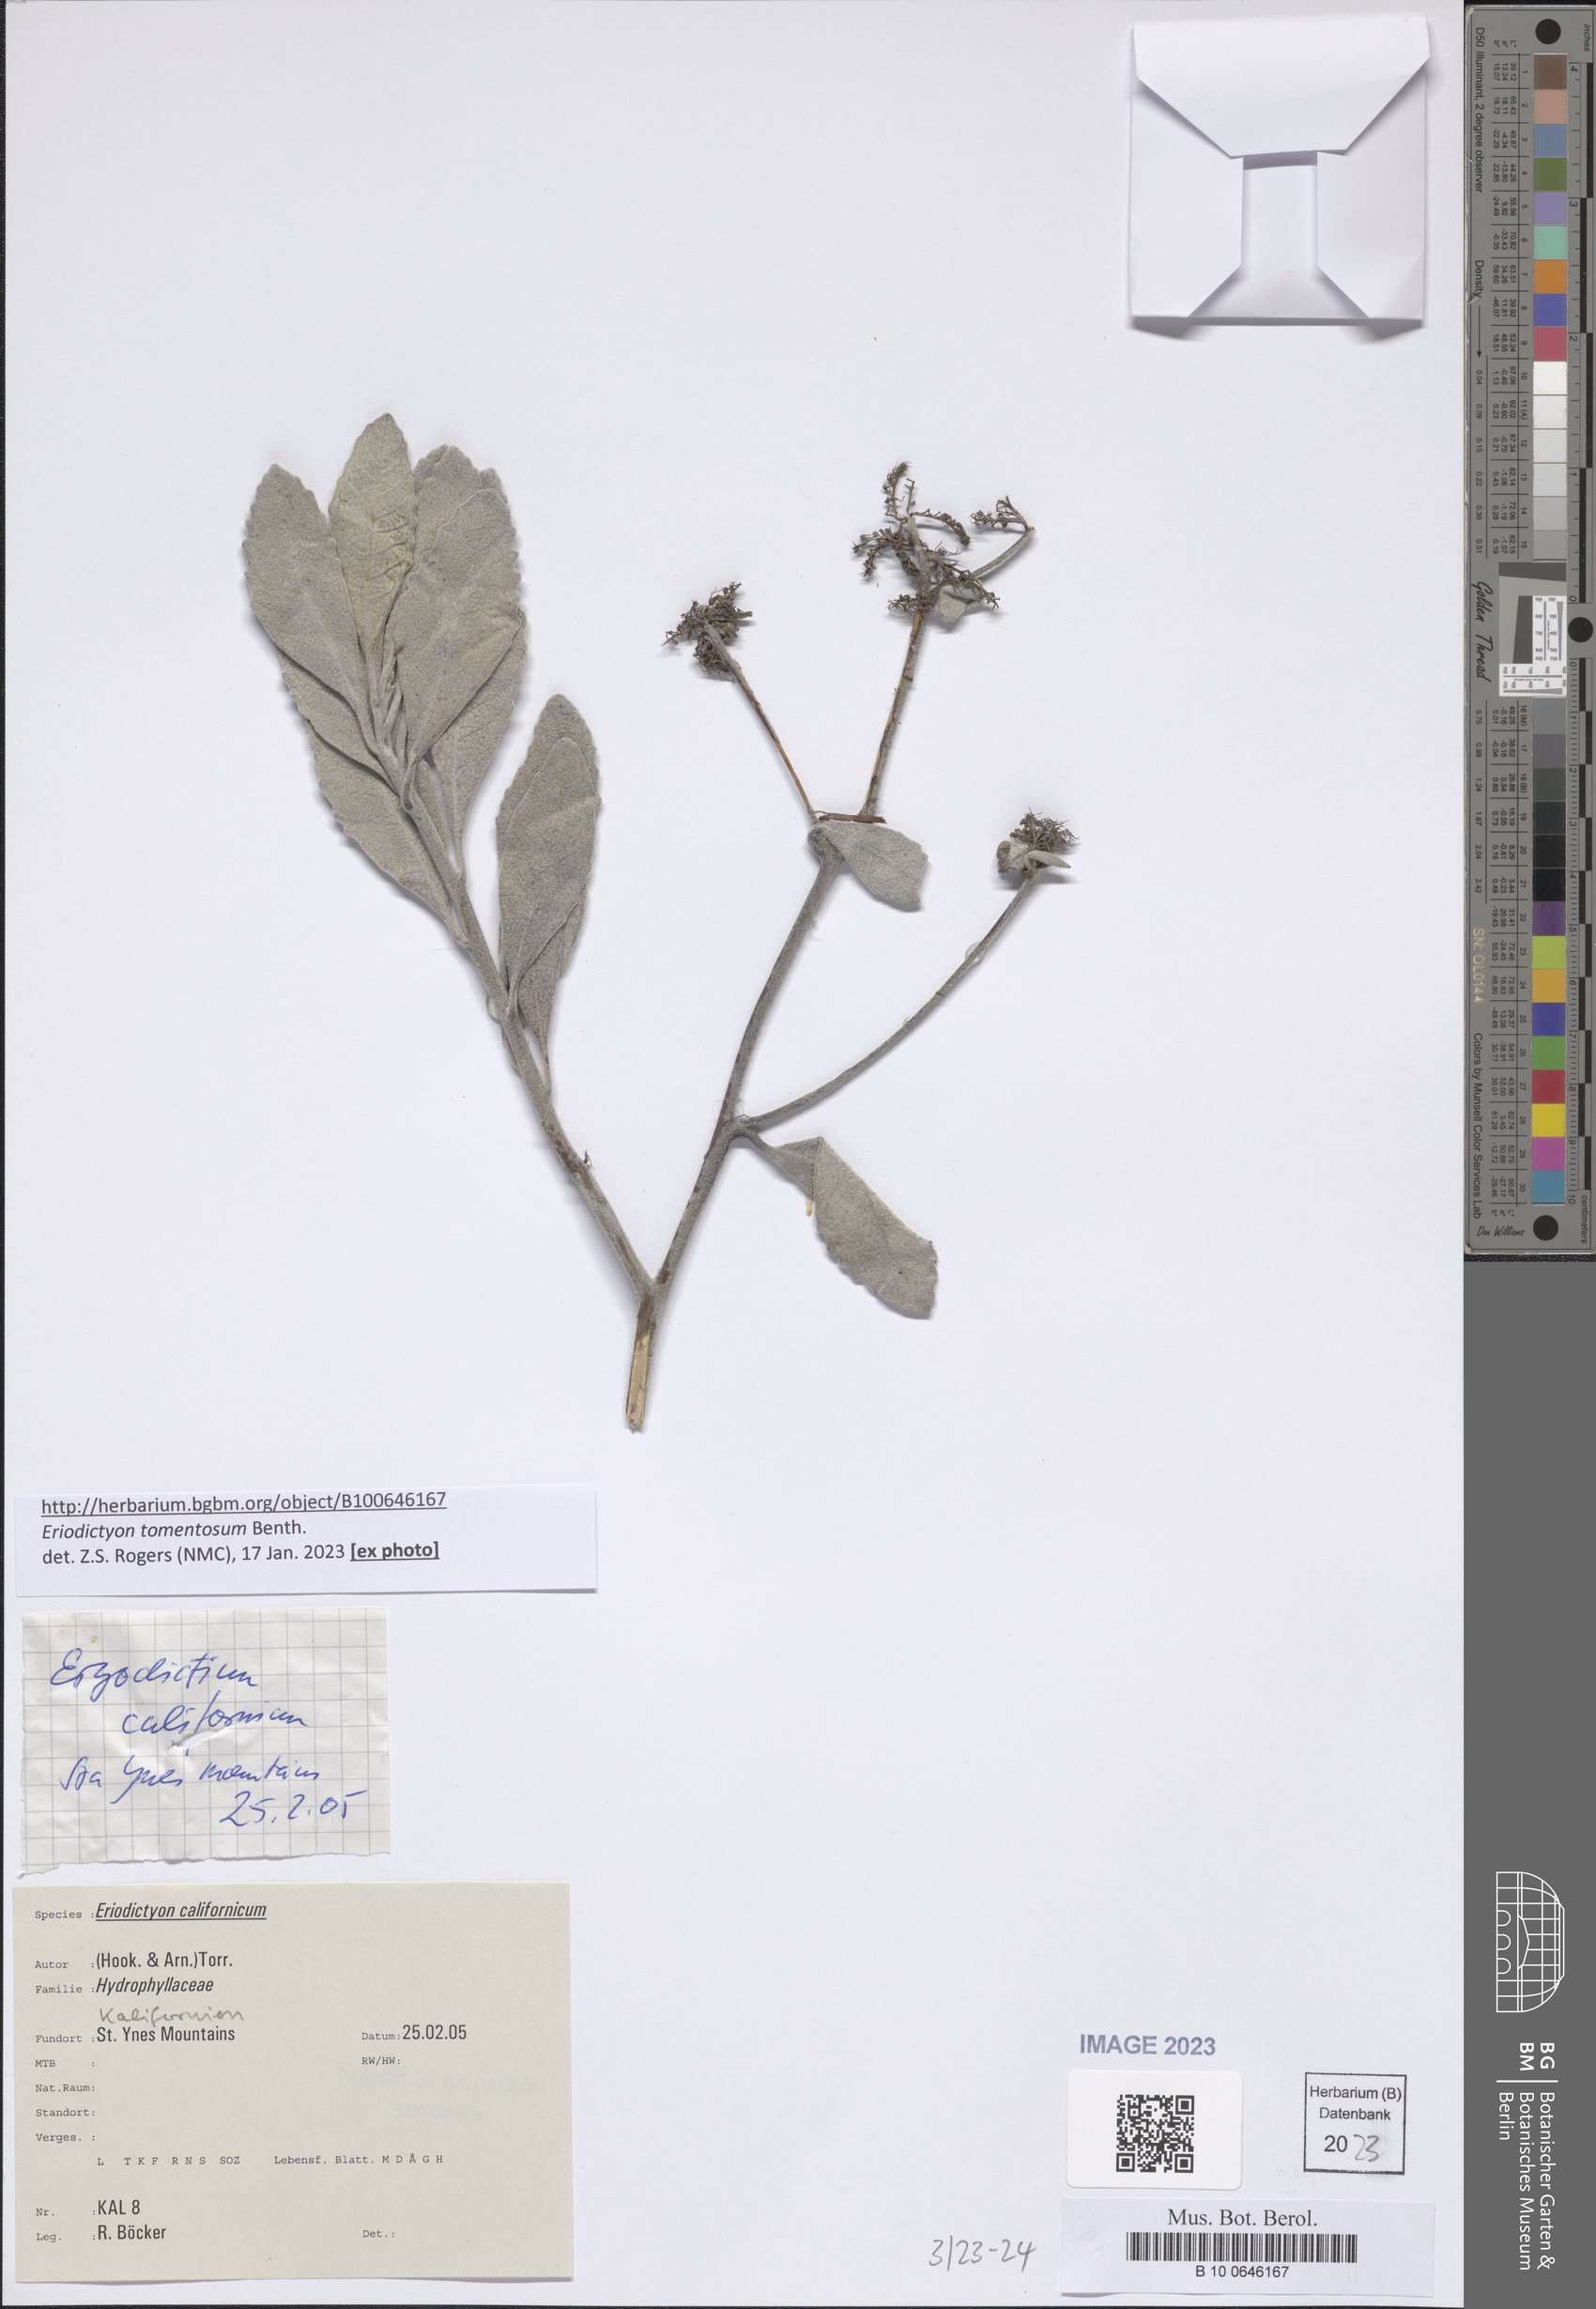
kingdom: Plantae
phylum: Tracheophyta
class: Magnoliopsida
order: Boraginales
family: Namaceae
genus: Eriodictyon
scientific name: Eriodictyon tomentosum
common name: Woolly yerba-santa
